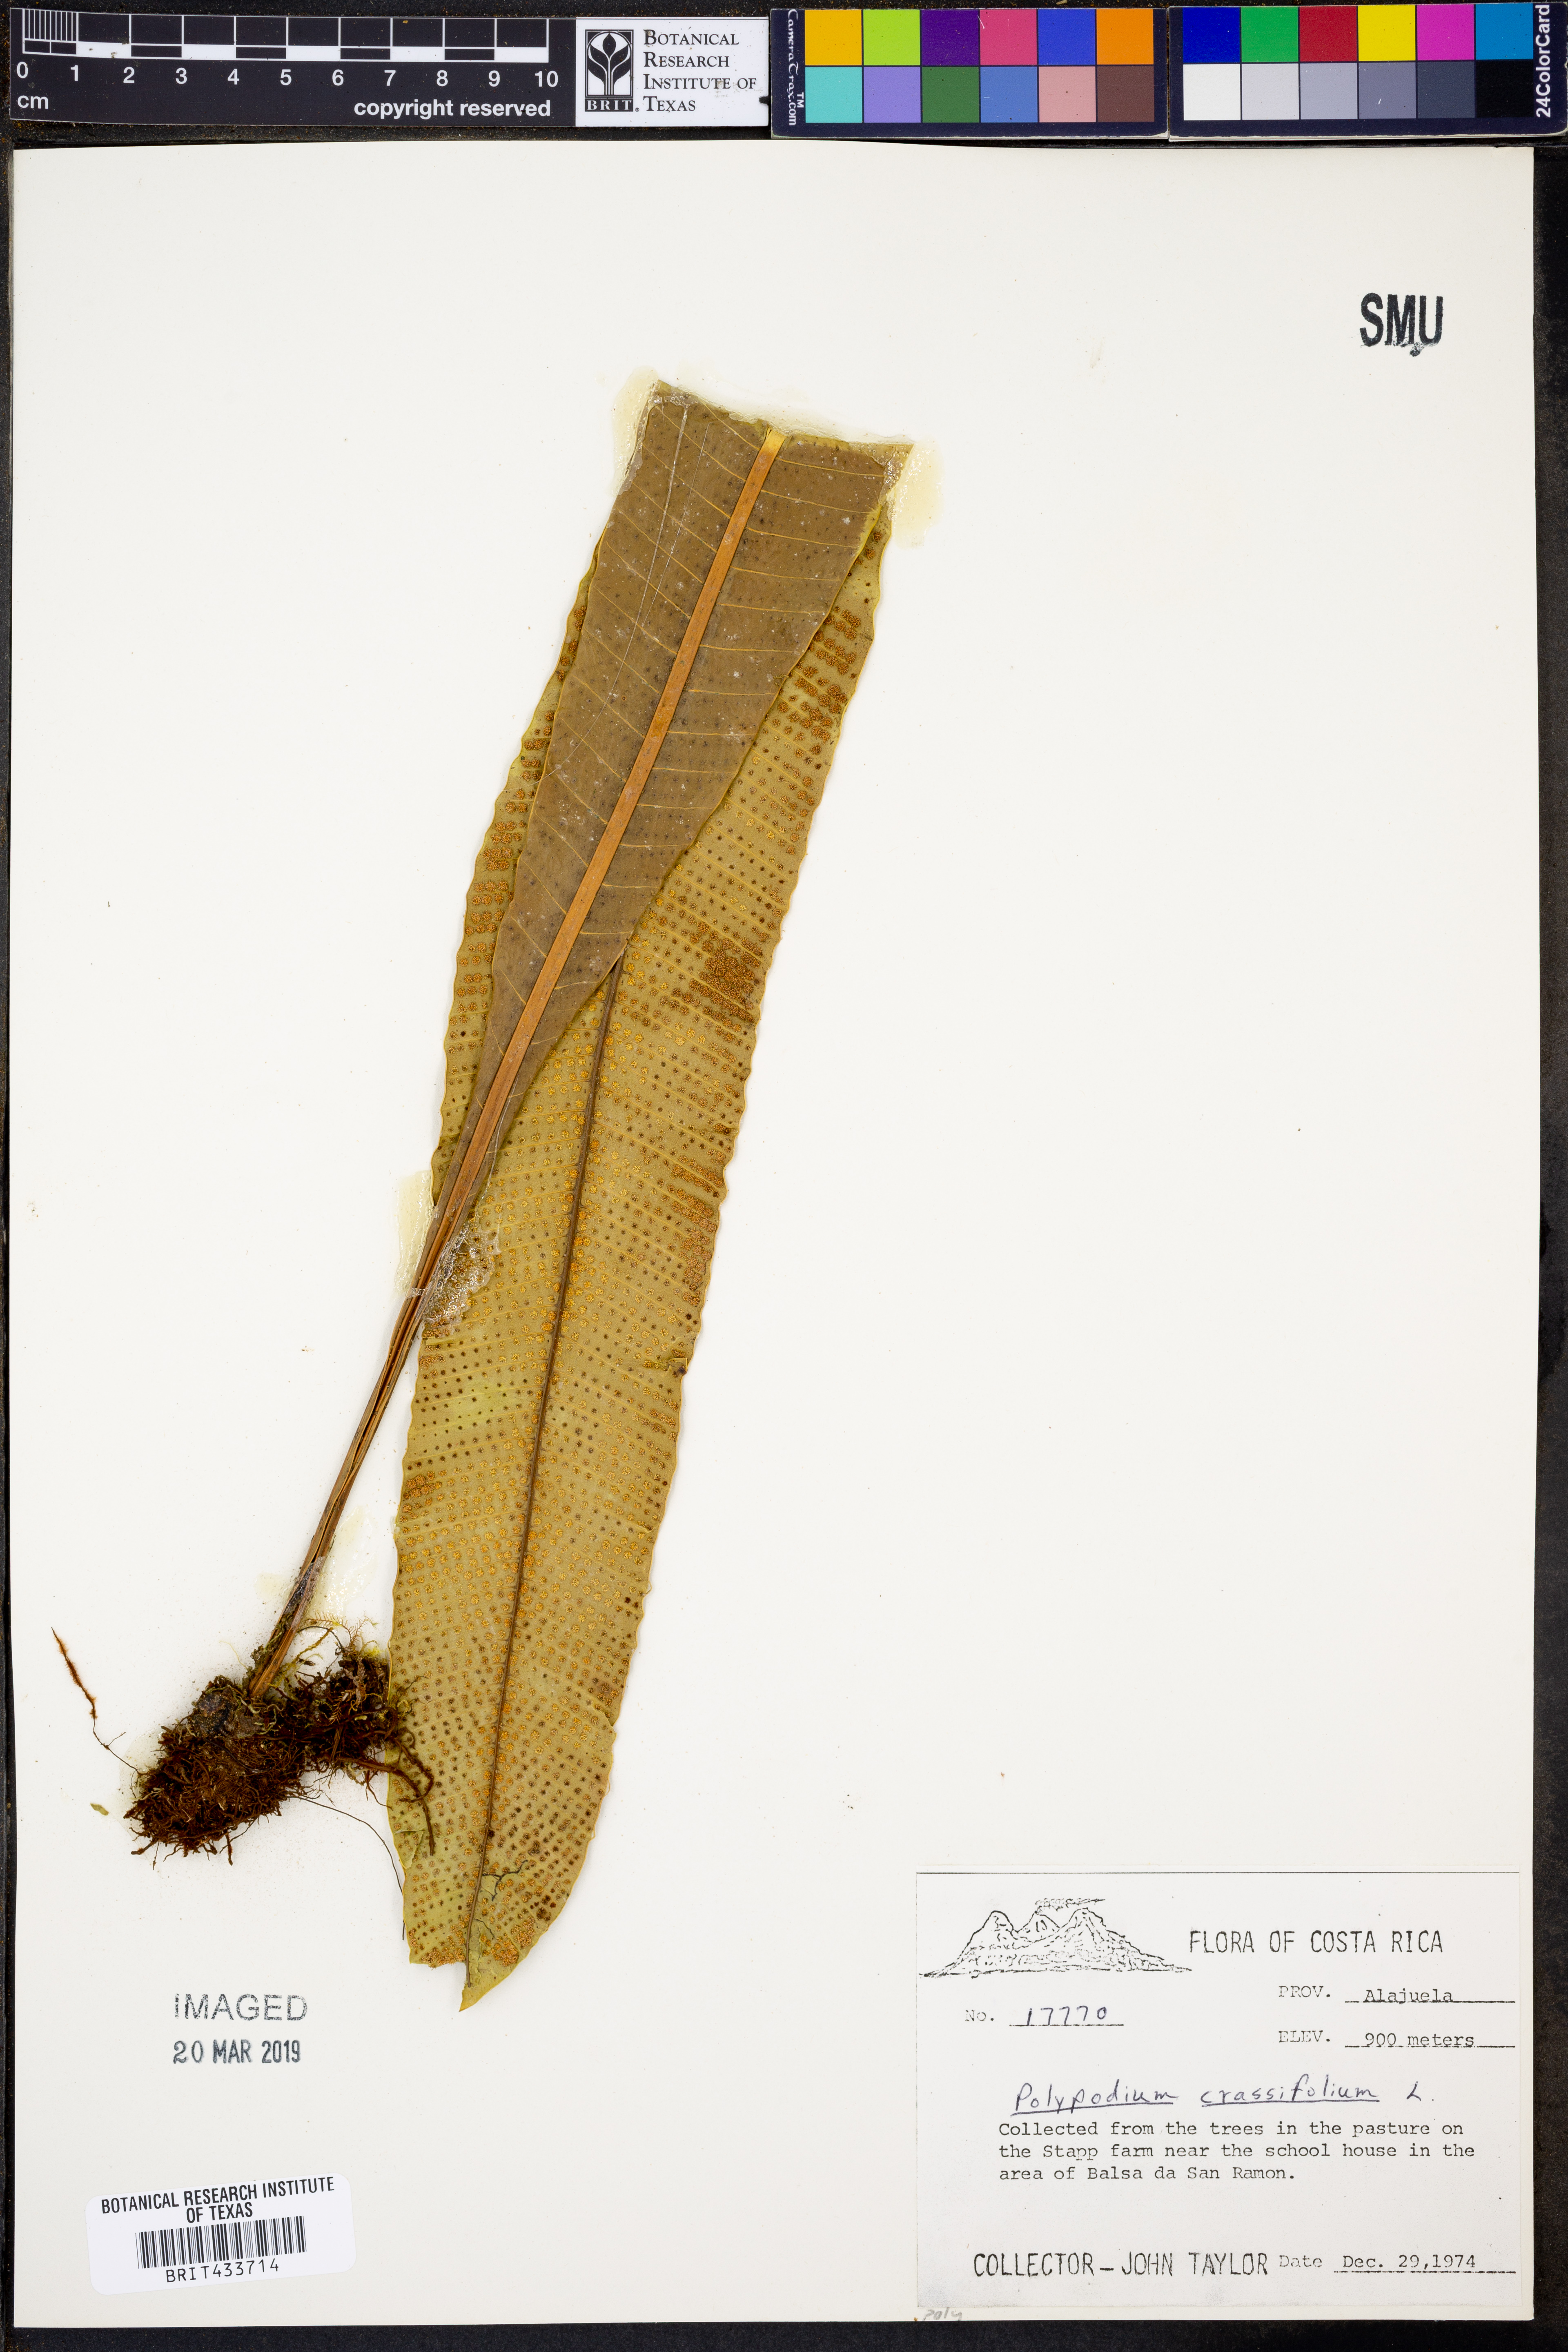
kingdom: Plantae
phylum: Tracheophyta
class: Polypodiopsida
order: Polypodiales
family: Polypodiaceae
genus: Niphidium
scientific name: Niphidium crassifolium
